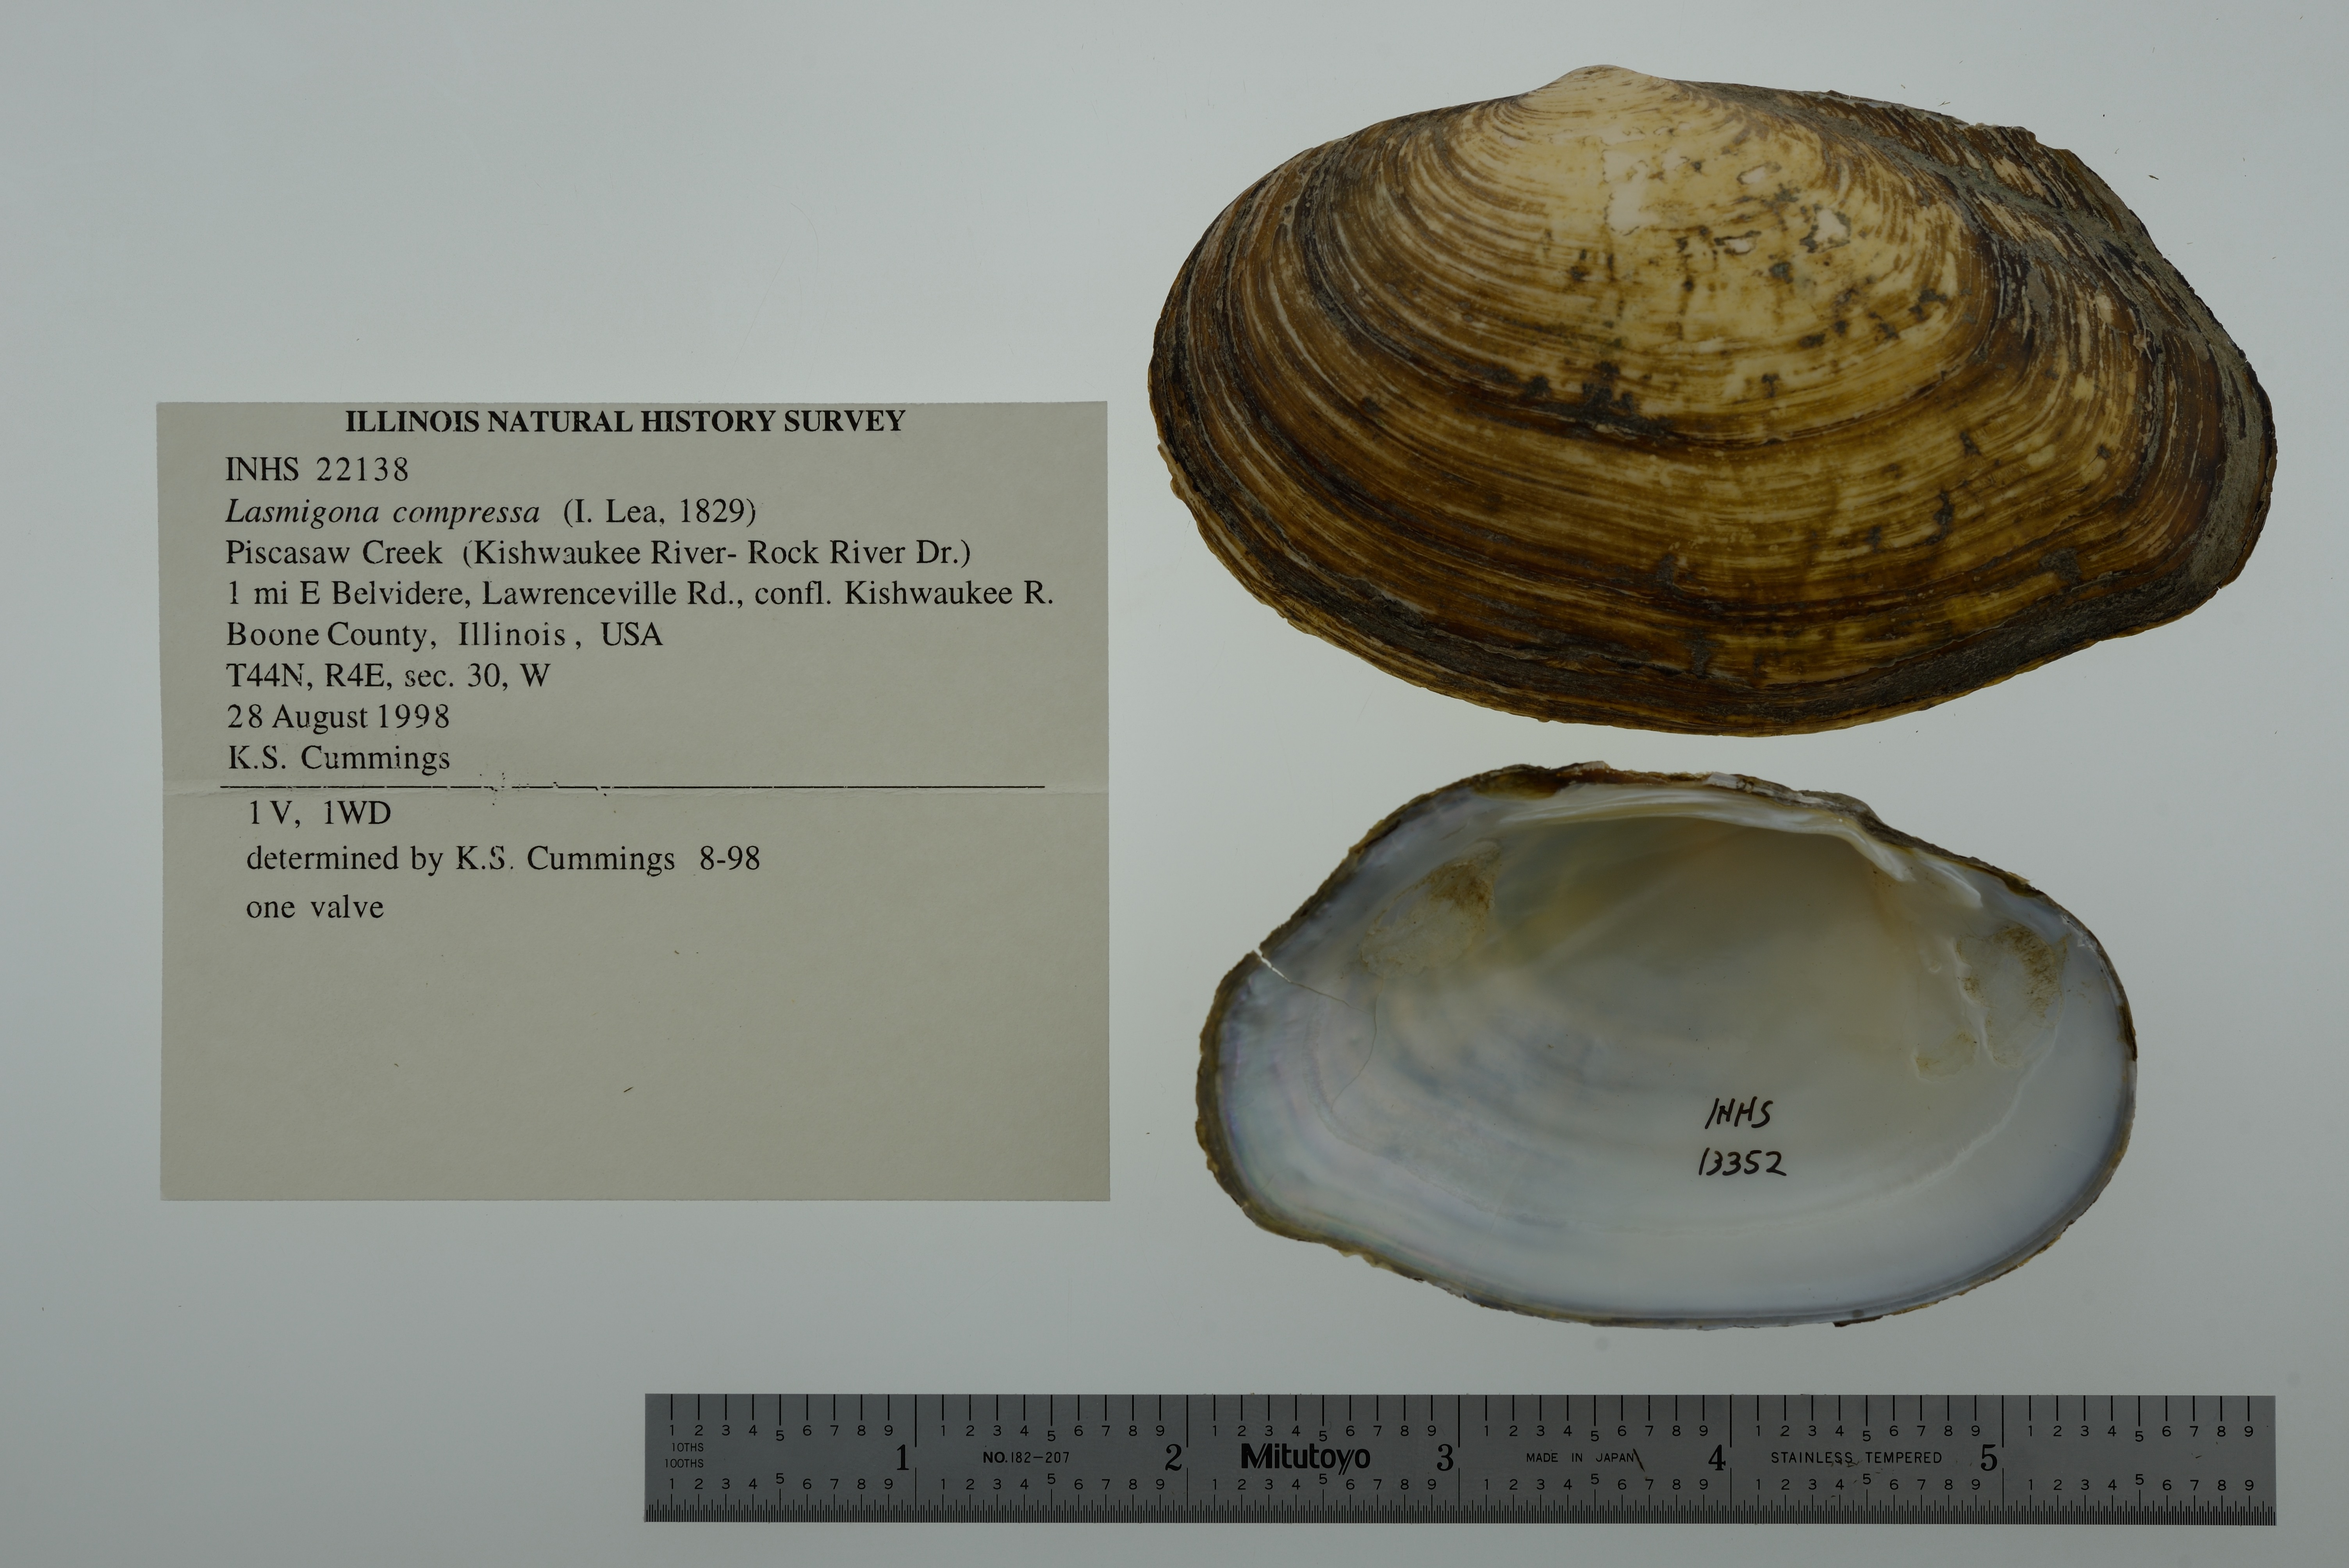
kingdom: Animalia
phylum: Mollusca
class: Bivalvia
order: Unionida
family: Unionidae
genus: Lasmigona
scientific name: Lasmigona compressa
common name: Creek heelsplitter
